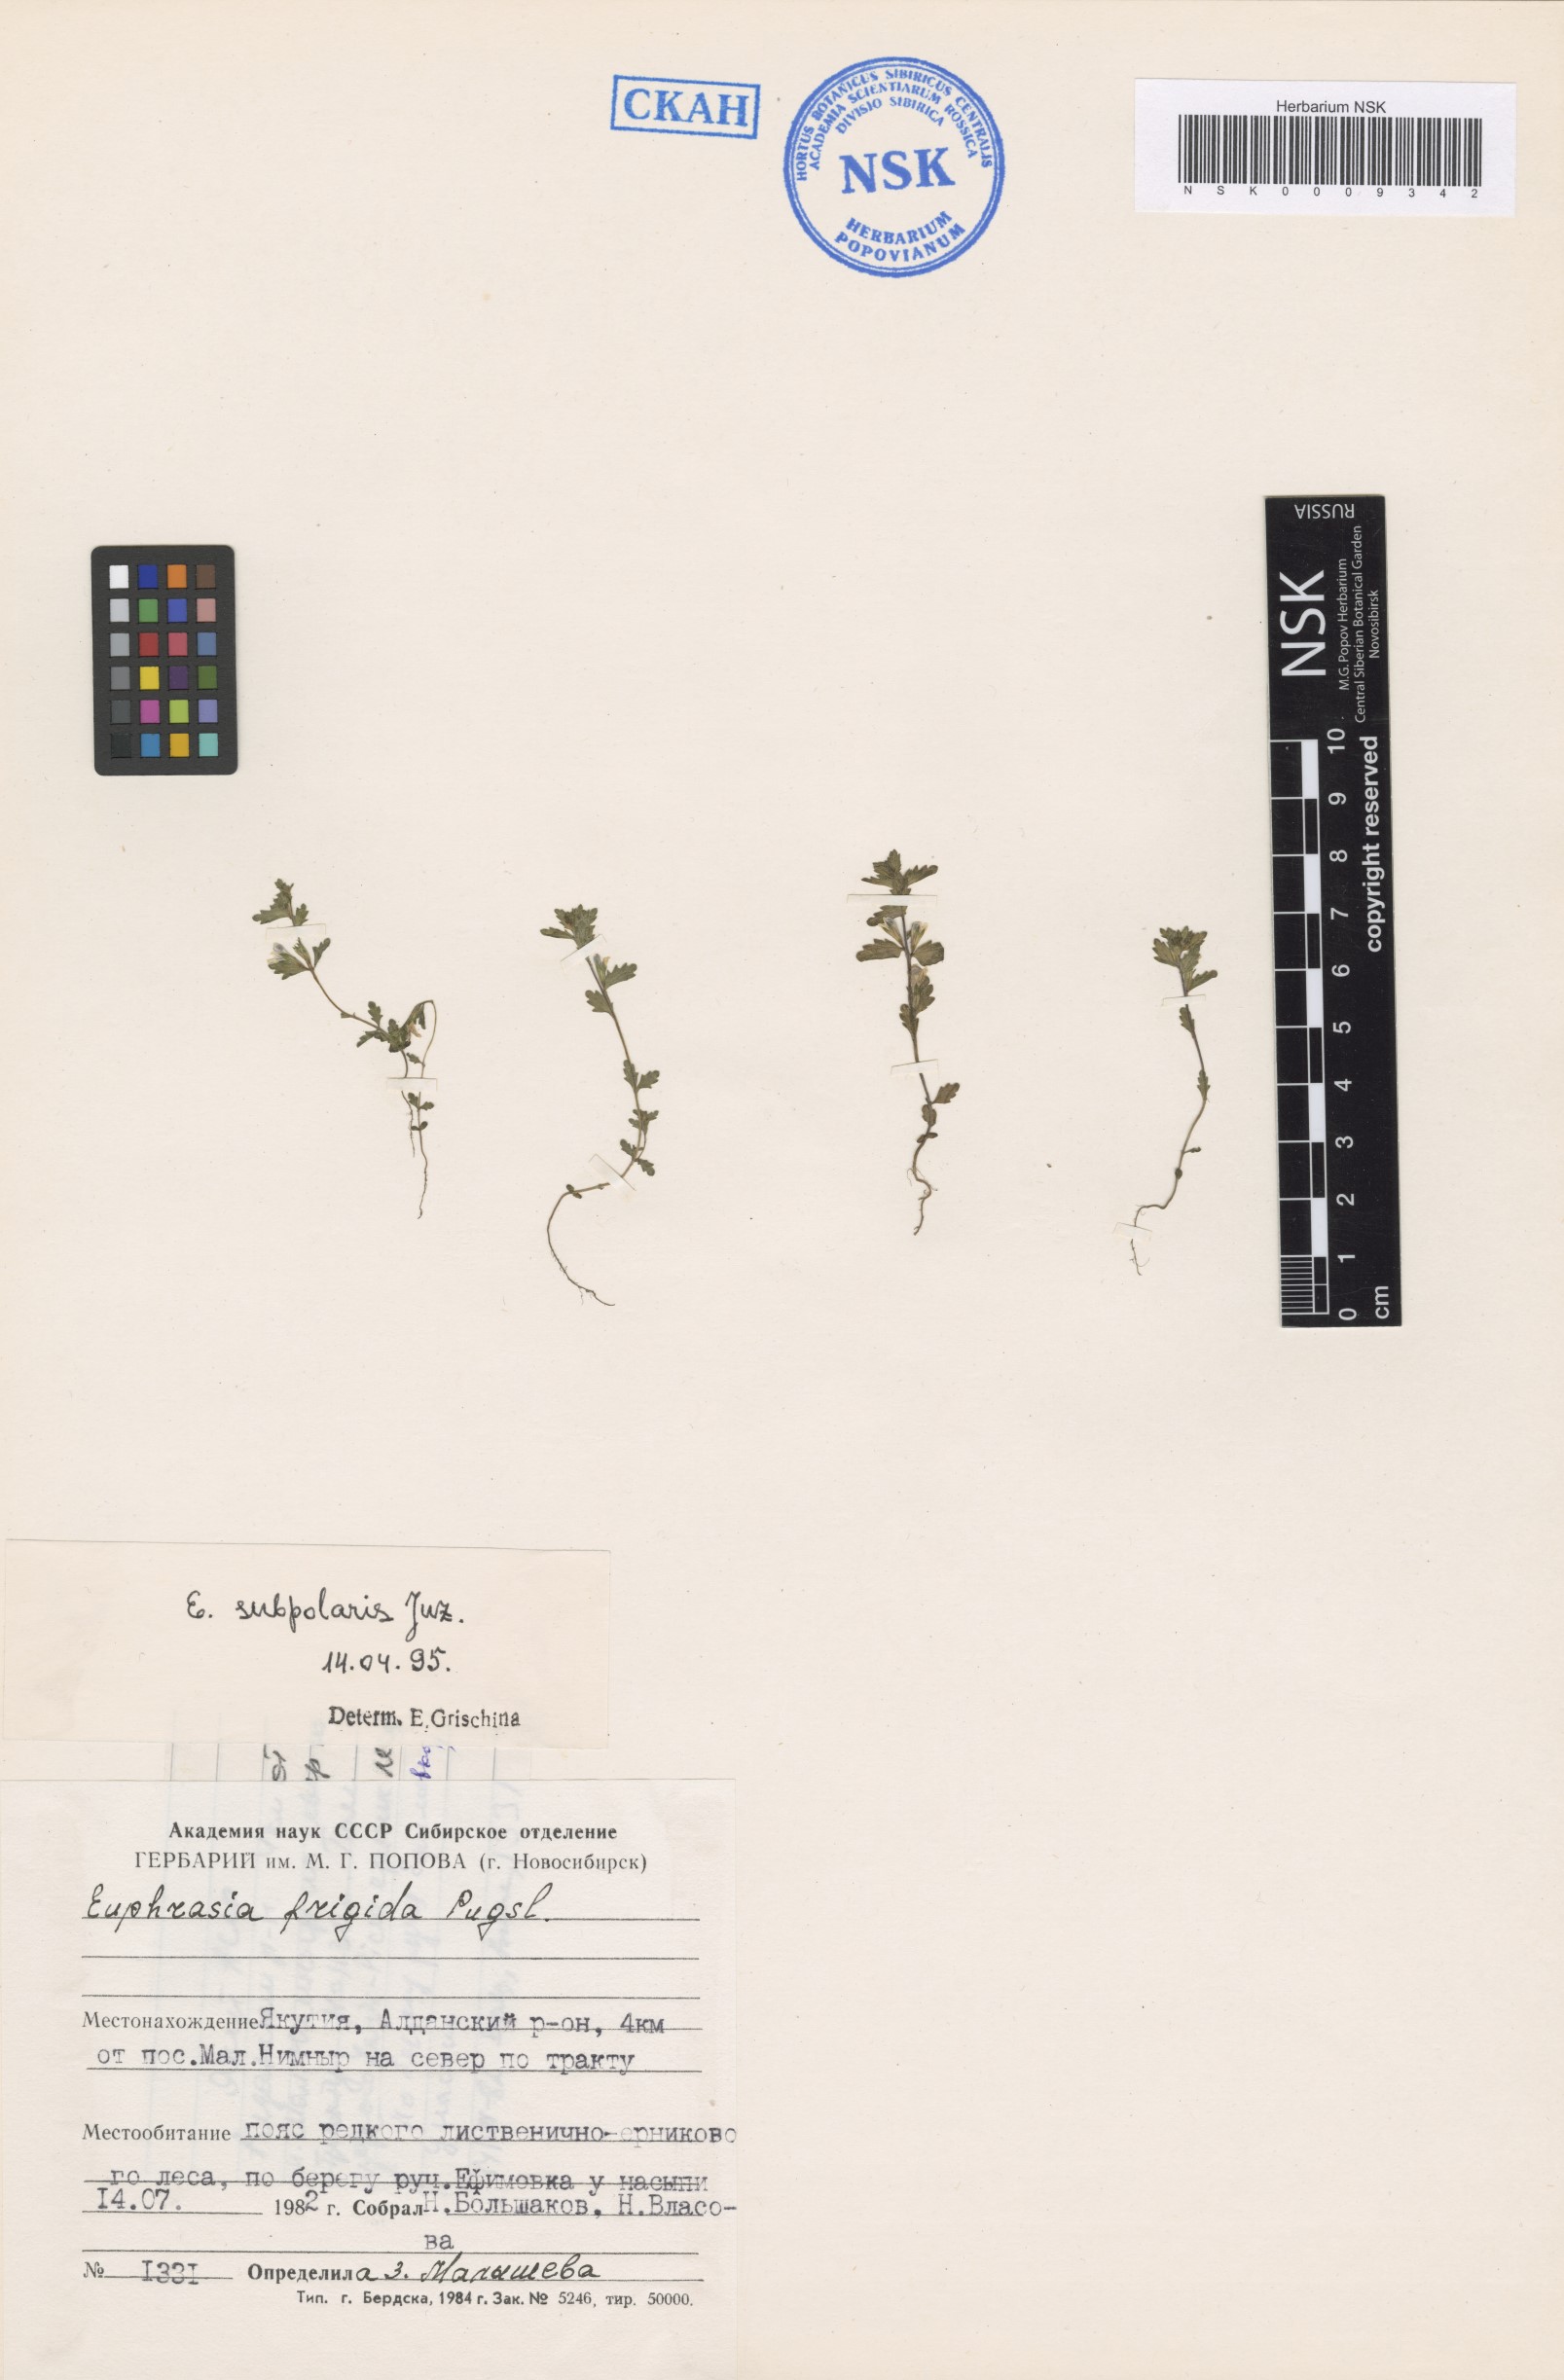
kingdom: Plantae
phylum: Tracheophyta
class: Magnoliopsida
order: Lamiales
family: Orobanchaceae
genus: Euphrasia
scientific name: Euphrasia hyperborea
